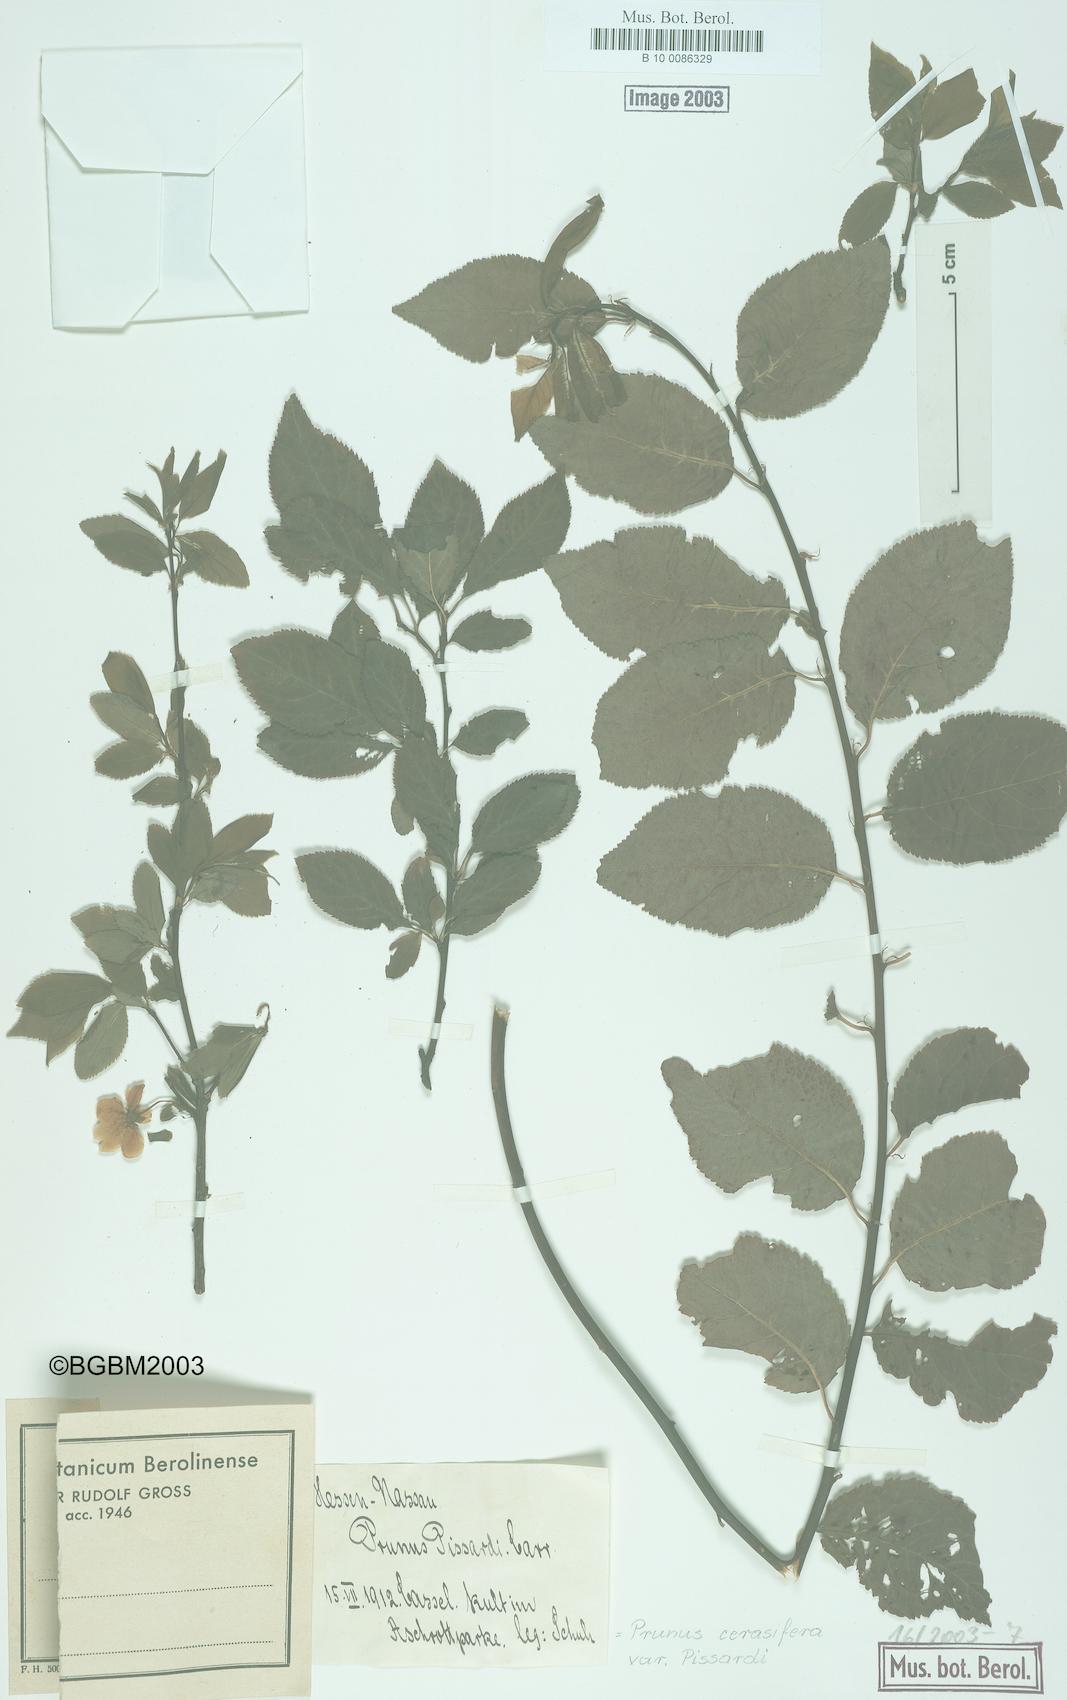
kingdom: Plantae
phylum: Tracheophyta
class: Magnoliopsida
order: Rosales
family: Rosaceae
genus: Prunus
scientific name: Prunus cerasifera
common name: Cherry plum
